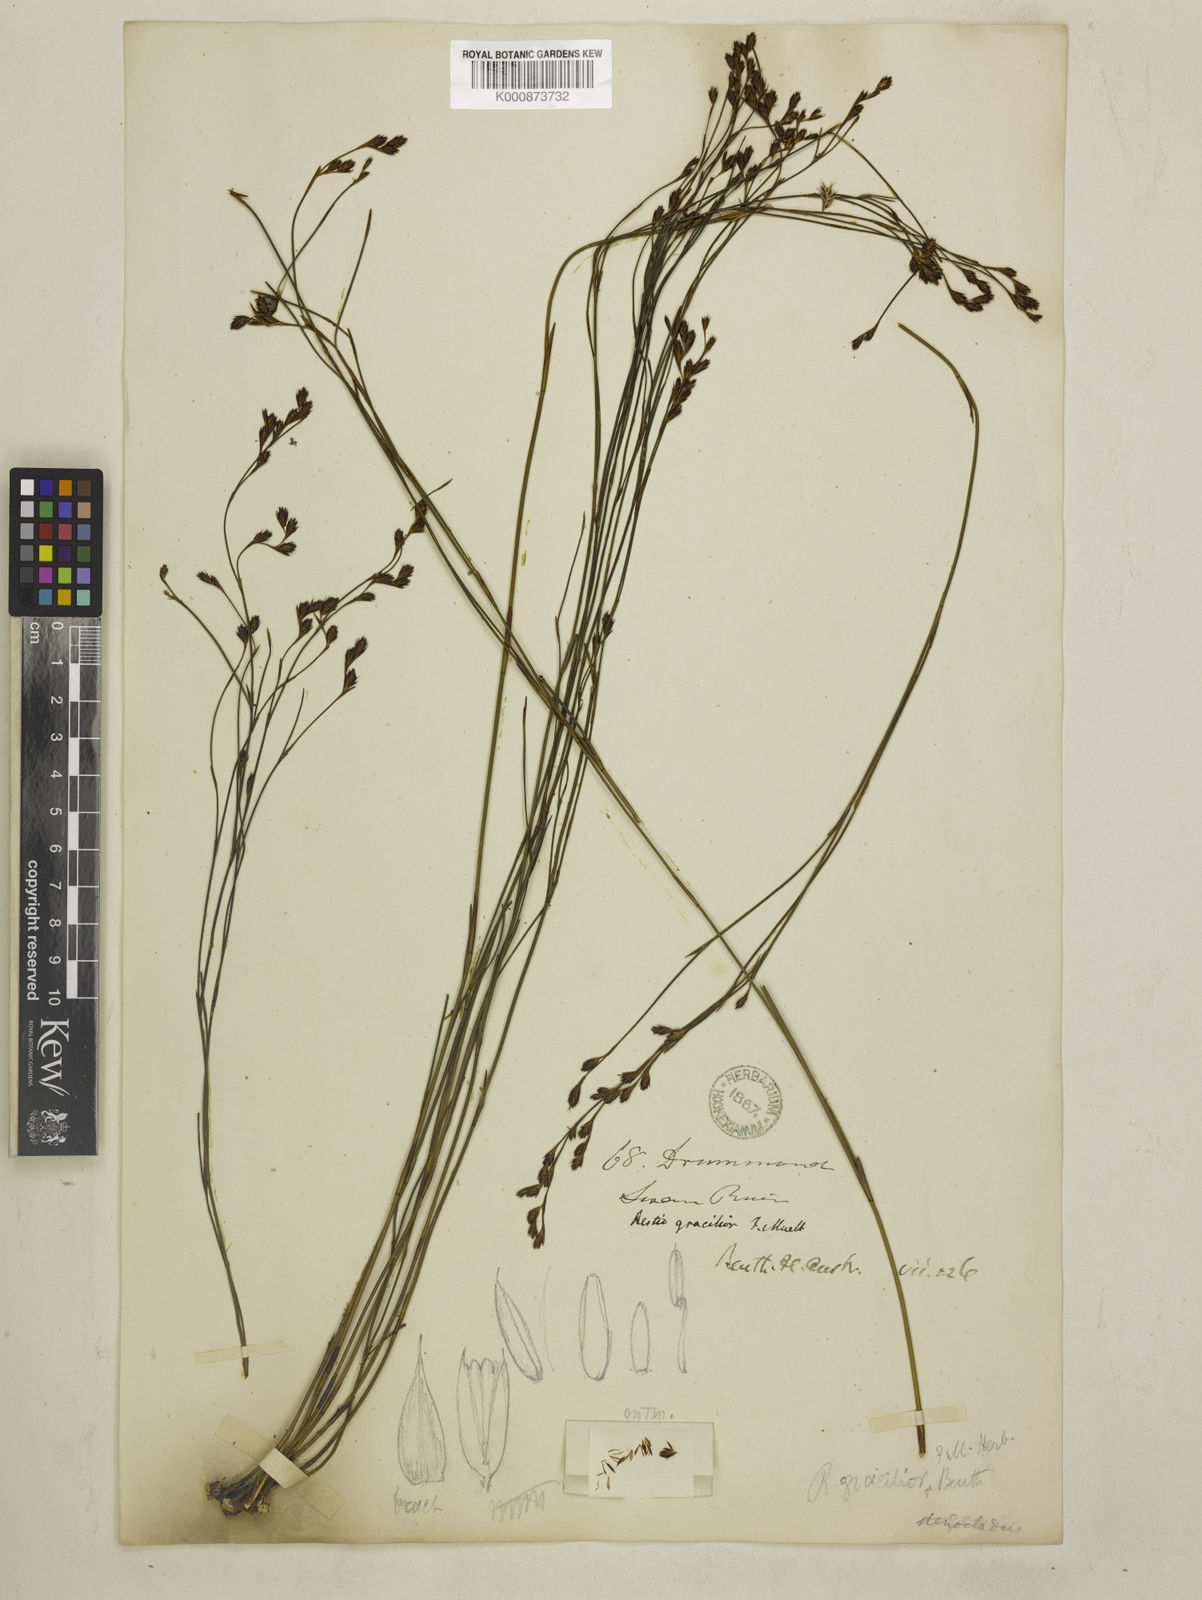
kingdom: Plantae
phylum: Tracheophyta
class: Liliopsida
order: Poales
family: Restionaceae
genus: Chordifex
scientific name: Chordifex gracilior
